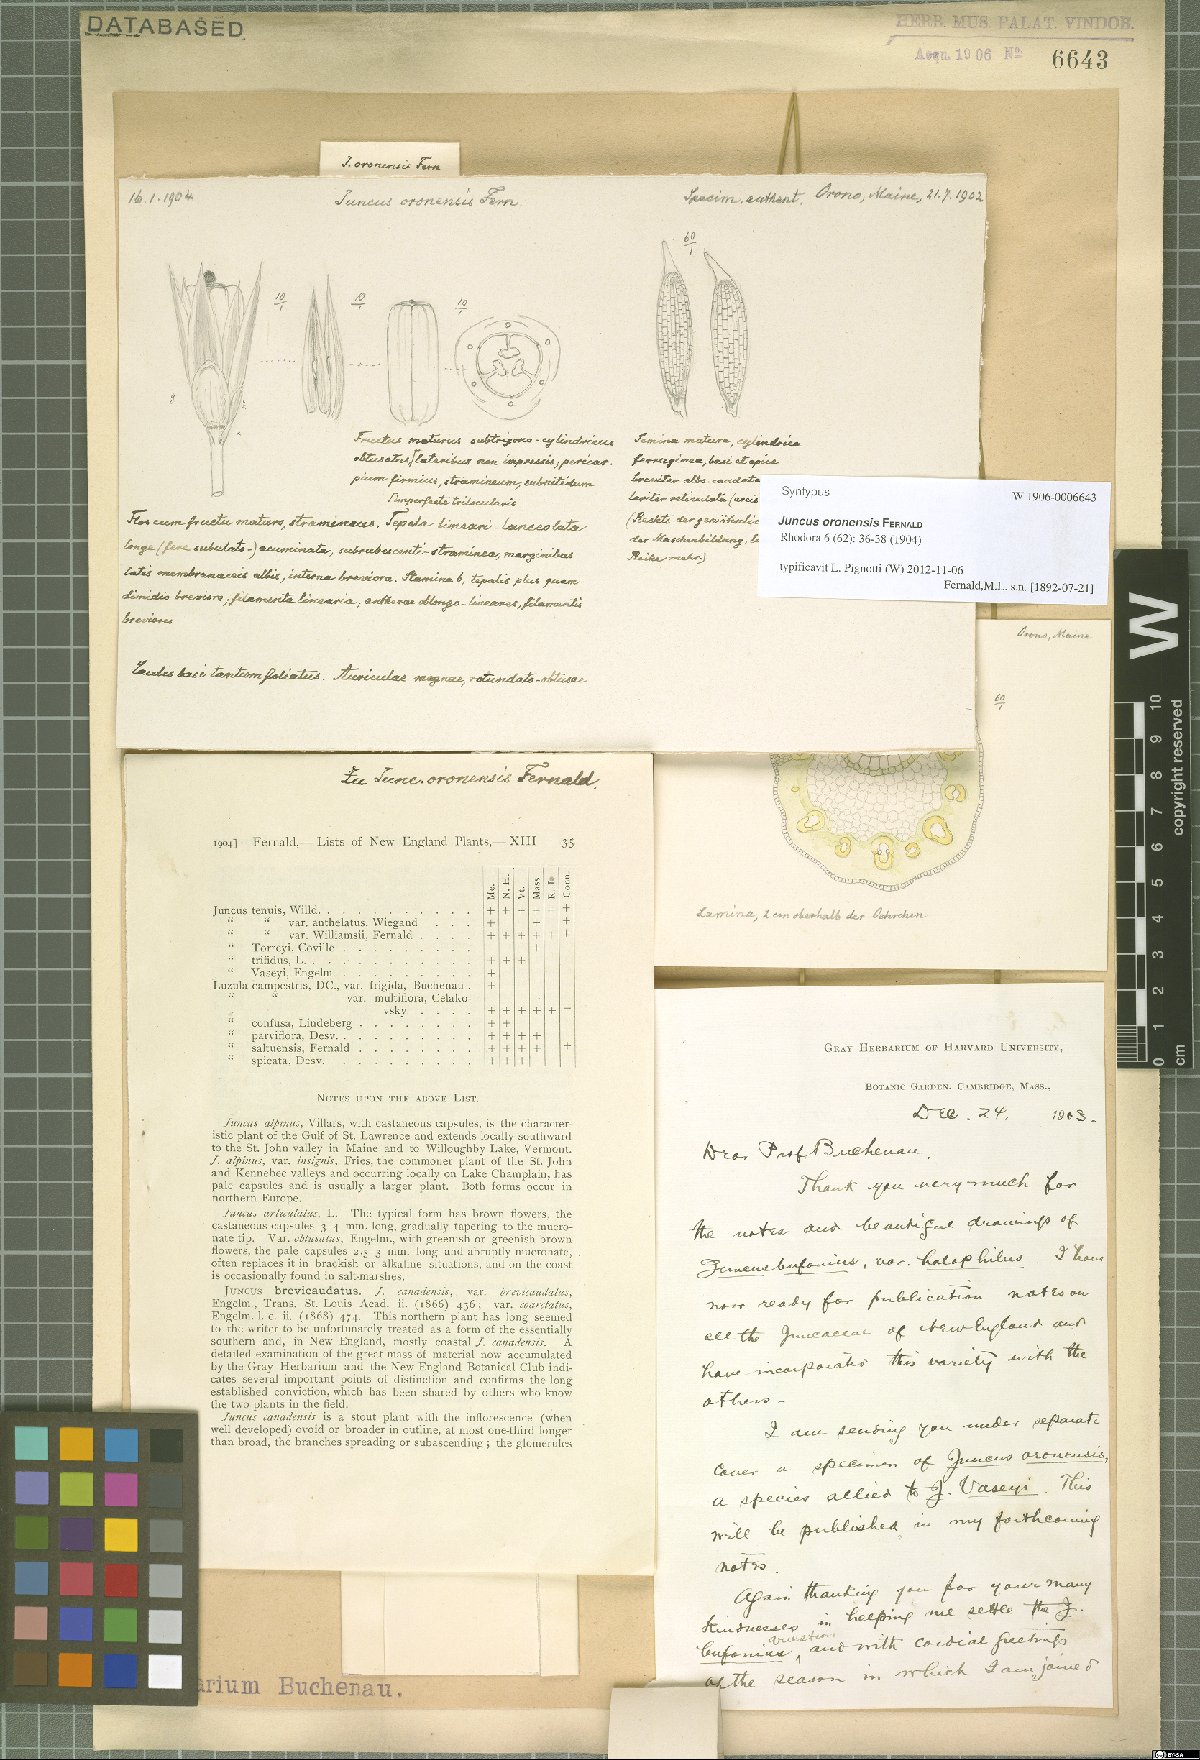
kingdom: Plantae
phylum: Tracheophyta
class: Liliopsida
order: Poales
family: Juncaceae
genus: Juncus
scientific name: Juncus oronensis
